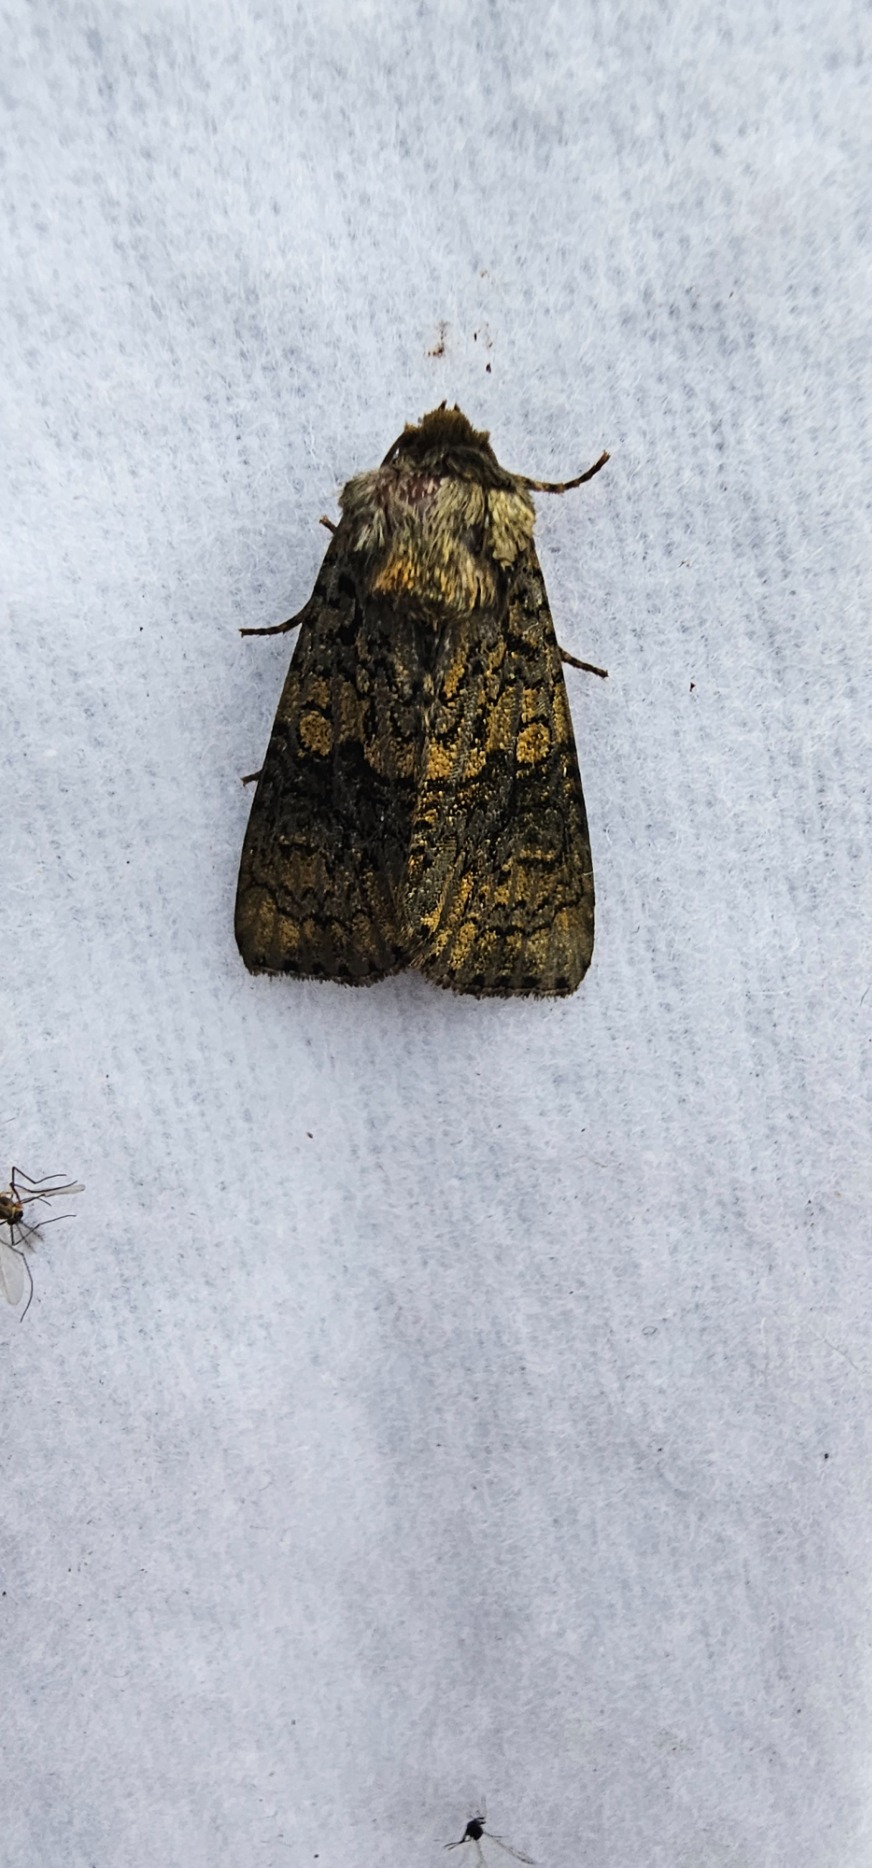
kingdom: Animalia
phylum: Arthropoda
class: Insecta
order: Lepidoptera
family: Noctuidae
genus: Craniophora
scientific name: Craniophora ligustri
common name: Askeugle
